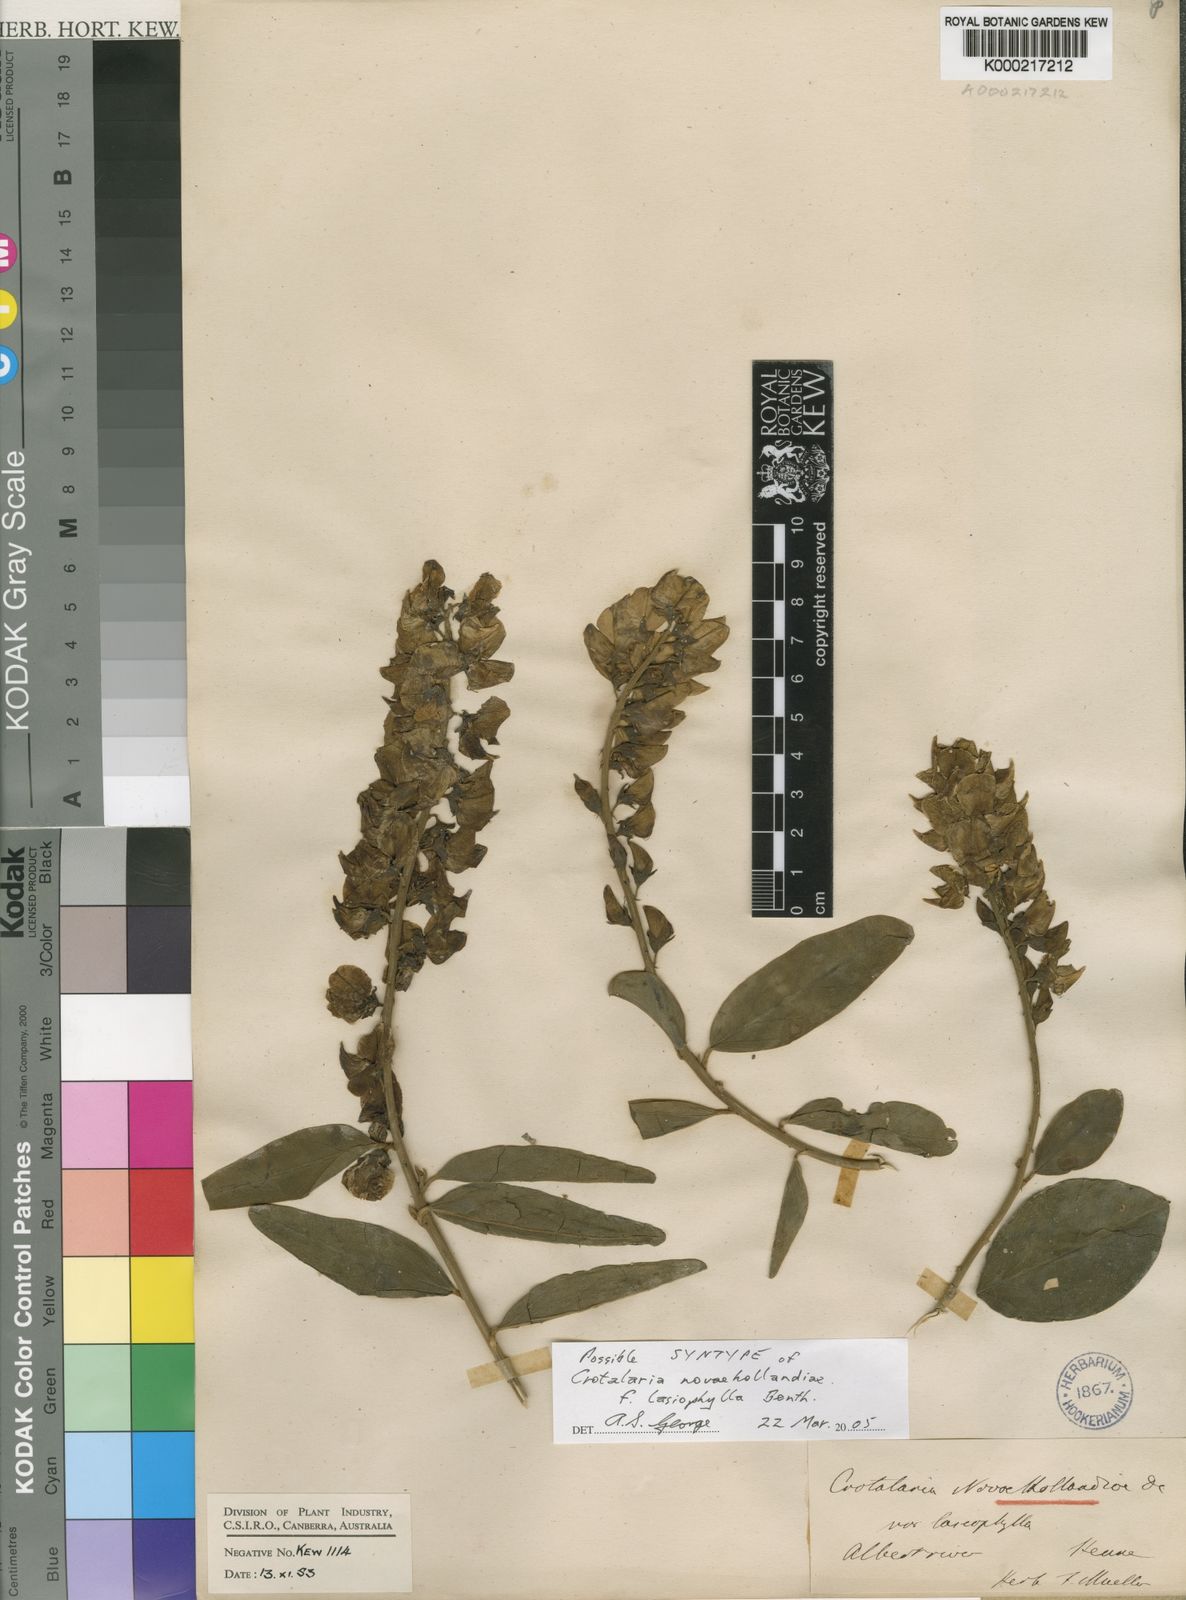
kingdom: Plantae
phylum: Tracheophyta
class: Magnoliopsida
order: Fabales
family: Fabaceae
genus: Crotalaria
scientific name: Crotalaria novae-hollandiae
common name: New holland rattlepod
